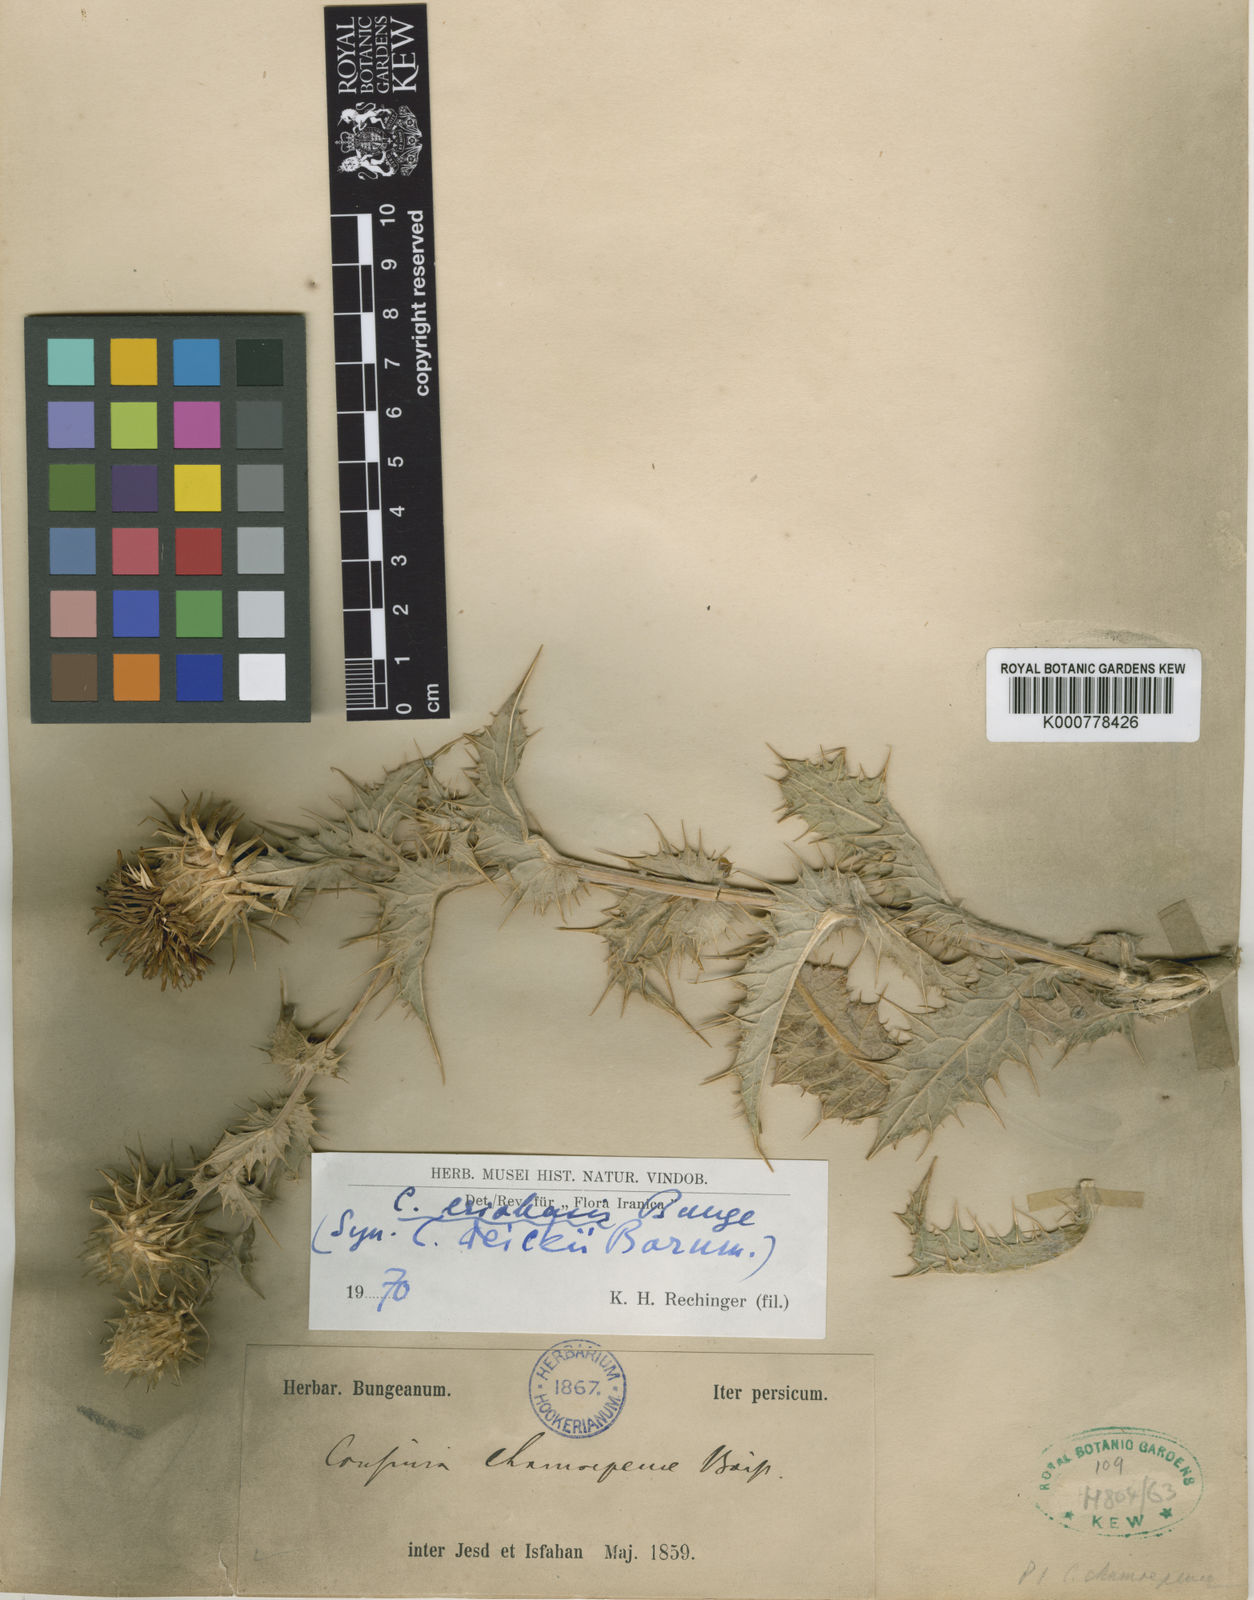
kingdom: Plantae
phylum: Tracheophyta
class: Magnoliopsida
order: Asterales
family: Asteraceae
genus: Cousinia
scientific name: Cousinia eriobasis
